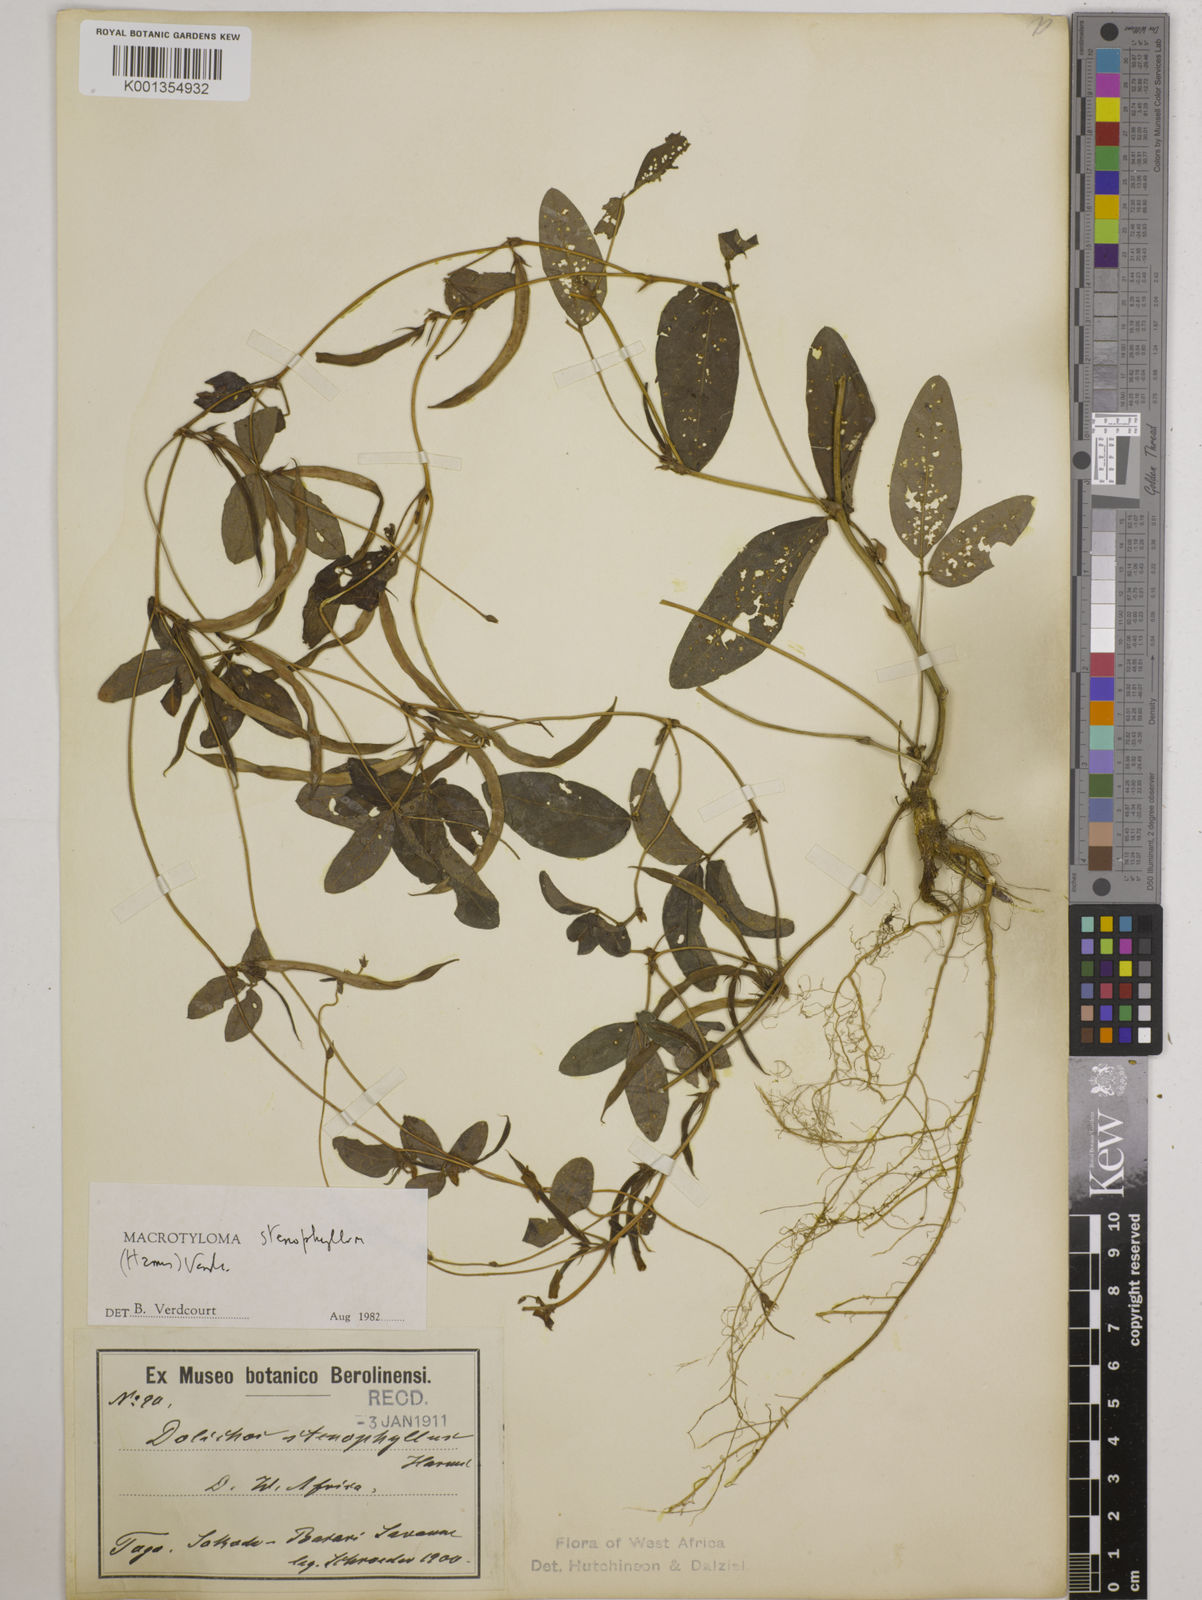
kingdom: Plantae
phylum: Tracheophyta
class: Magnoliopsida
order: Fabales
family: Fabaceae
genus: Macrotyloma
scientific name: Macrotyloma stenophyllum
